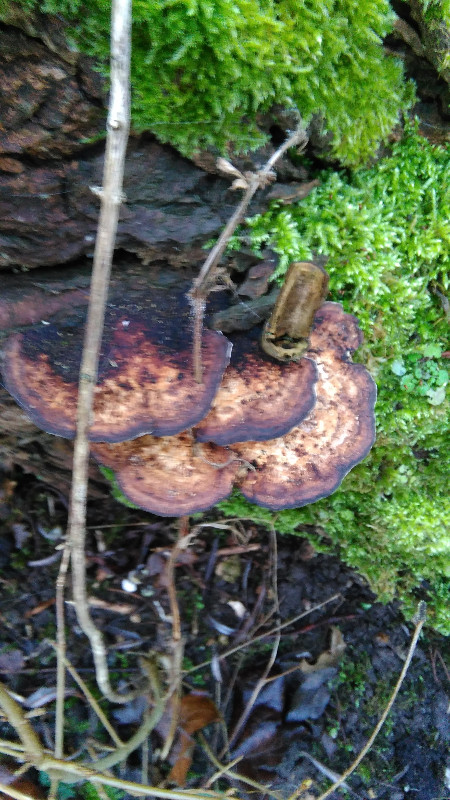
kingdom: Fungi
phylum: Basidiomycota
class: Agaricomycetes
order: Polyporales
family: Polyporaceae
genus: Daedaleopsis
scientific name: Daedaleopsis confragosa
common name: rødmende læderporesvamp
